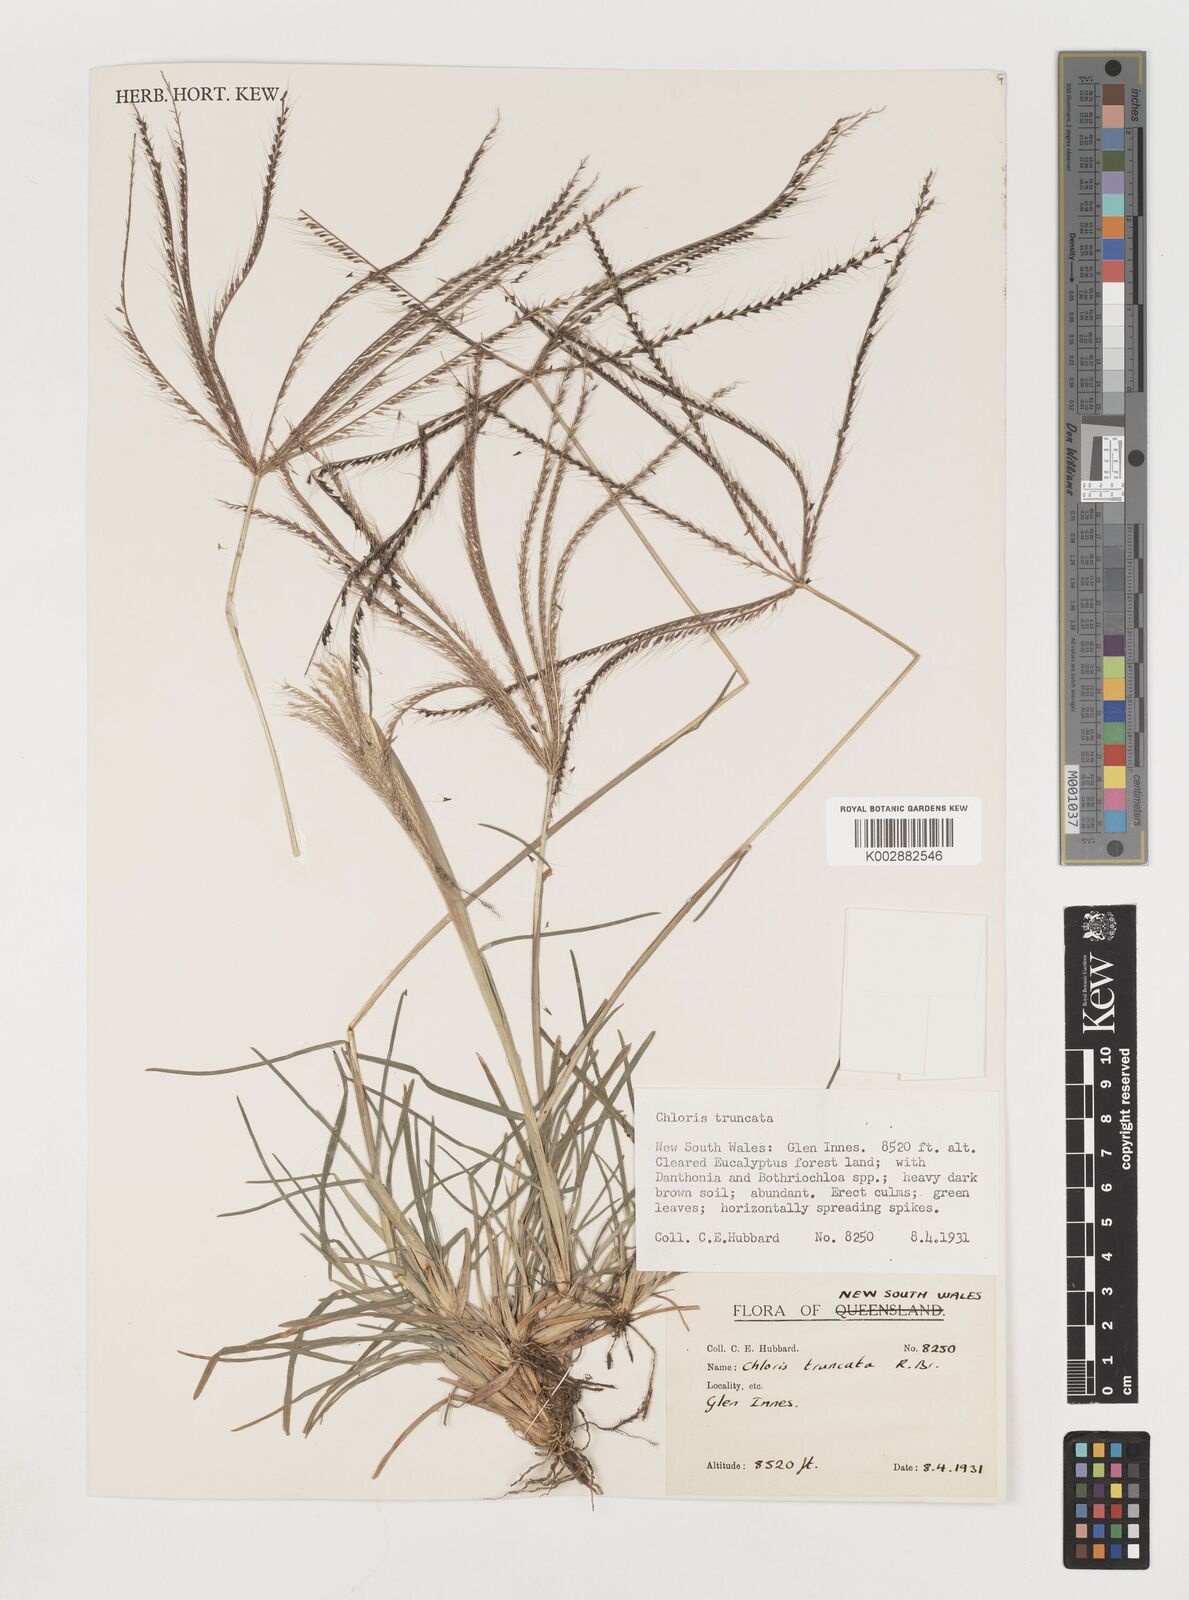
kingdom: Plantae
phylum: Tracheophyta
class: Liliopsida
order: Poales
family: Poaceae
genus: Chloris
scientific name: Chloris truncata
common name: Windmill-grass
